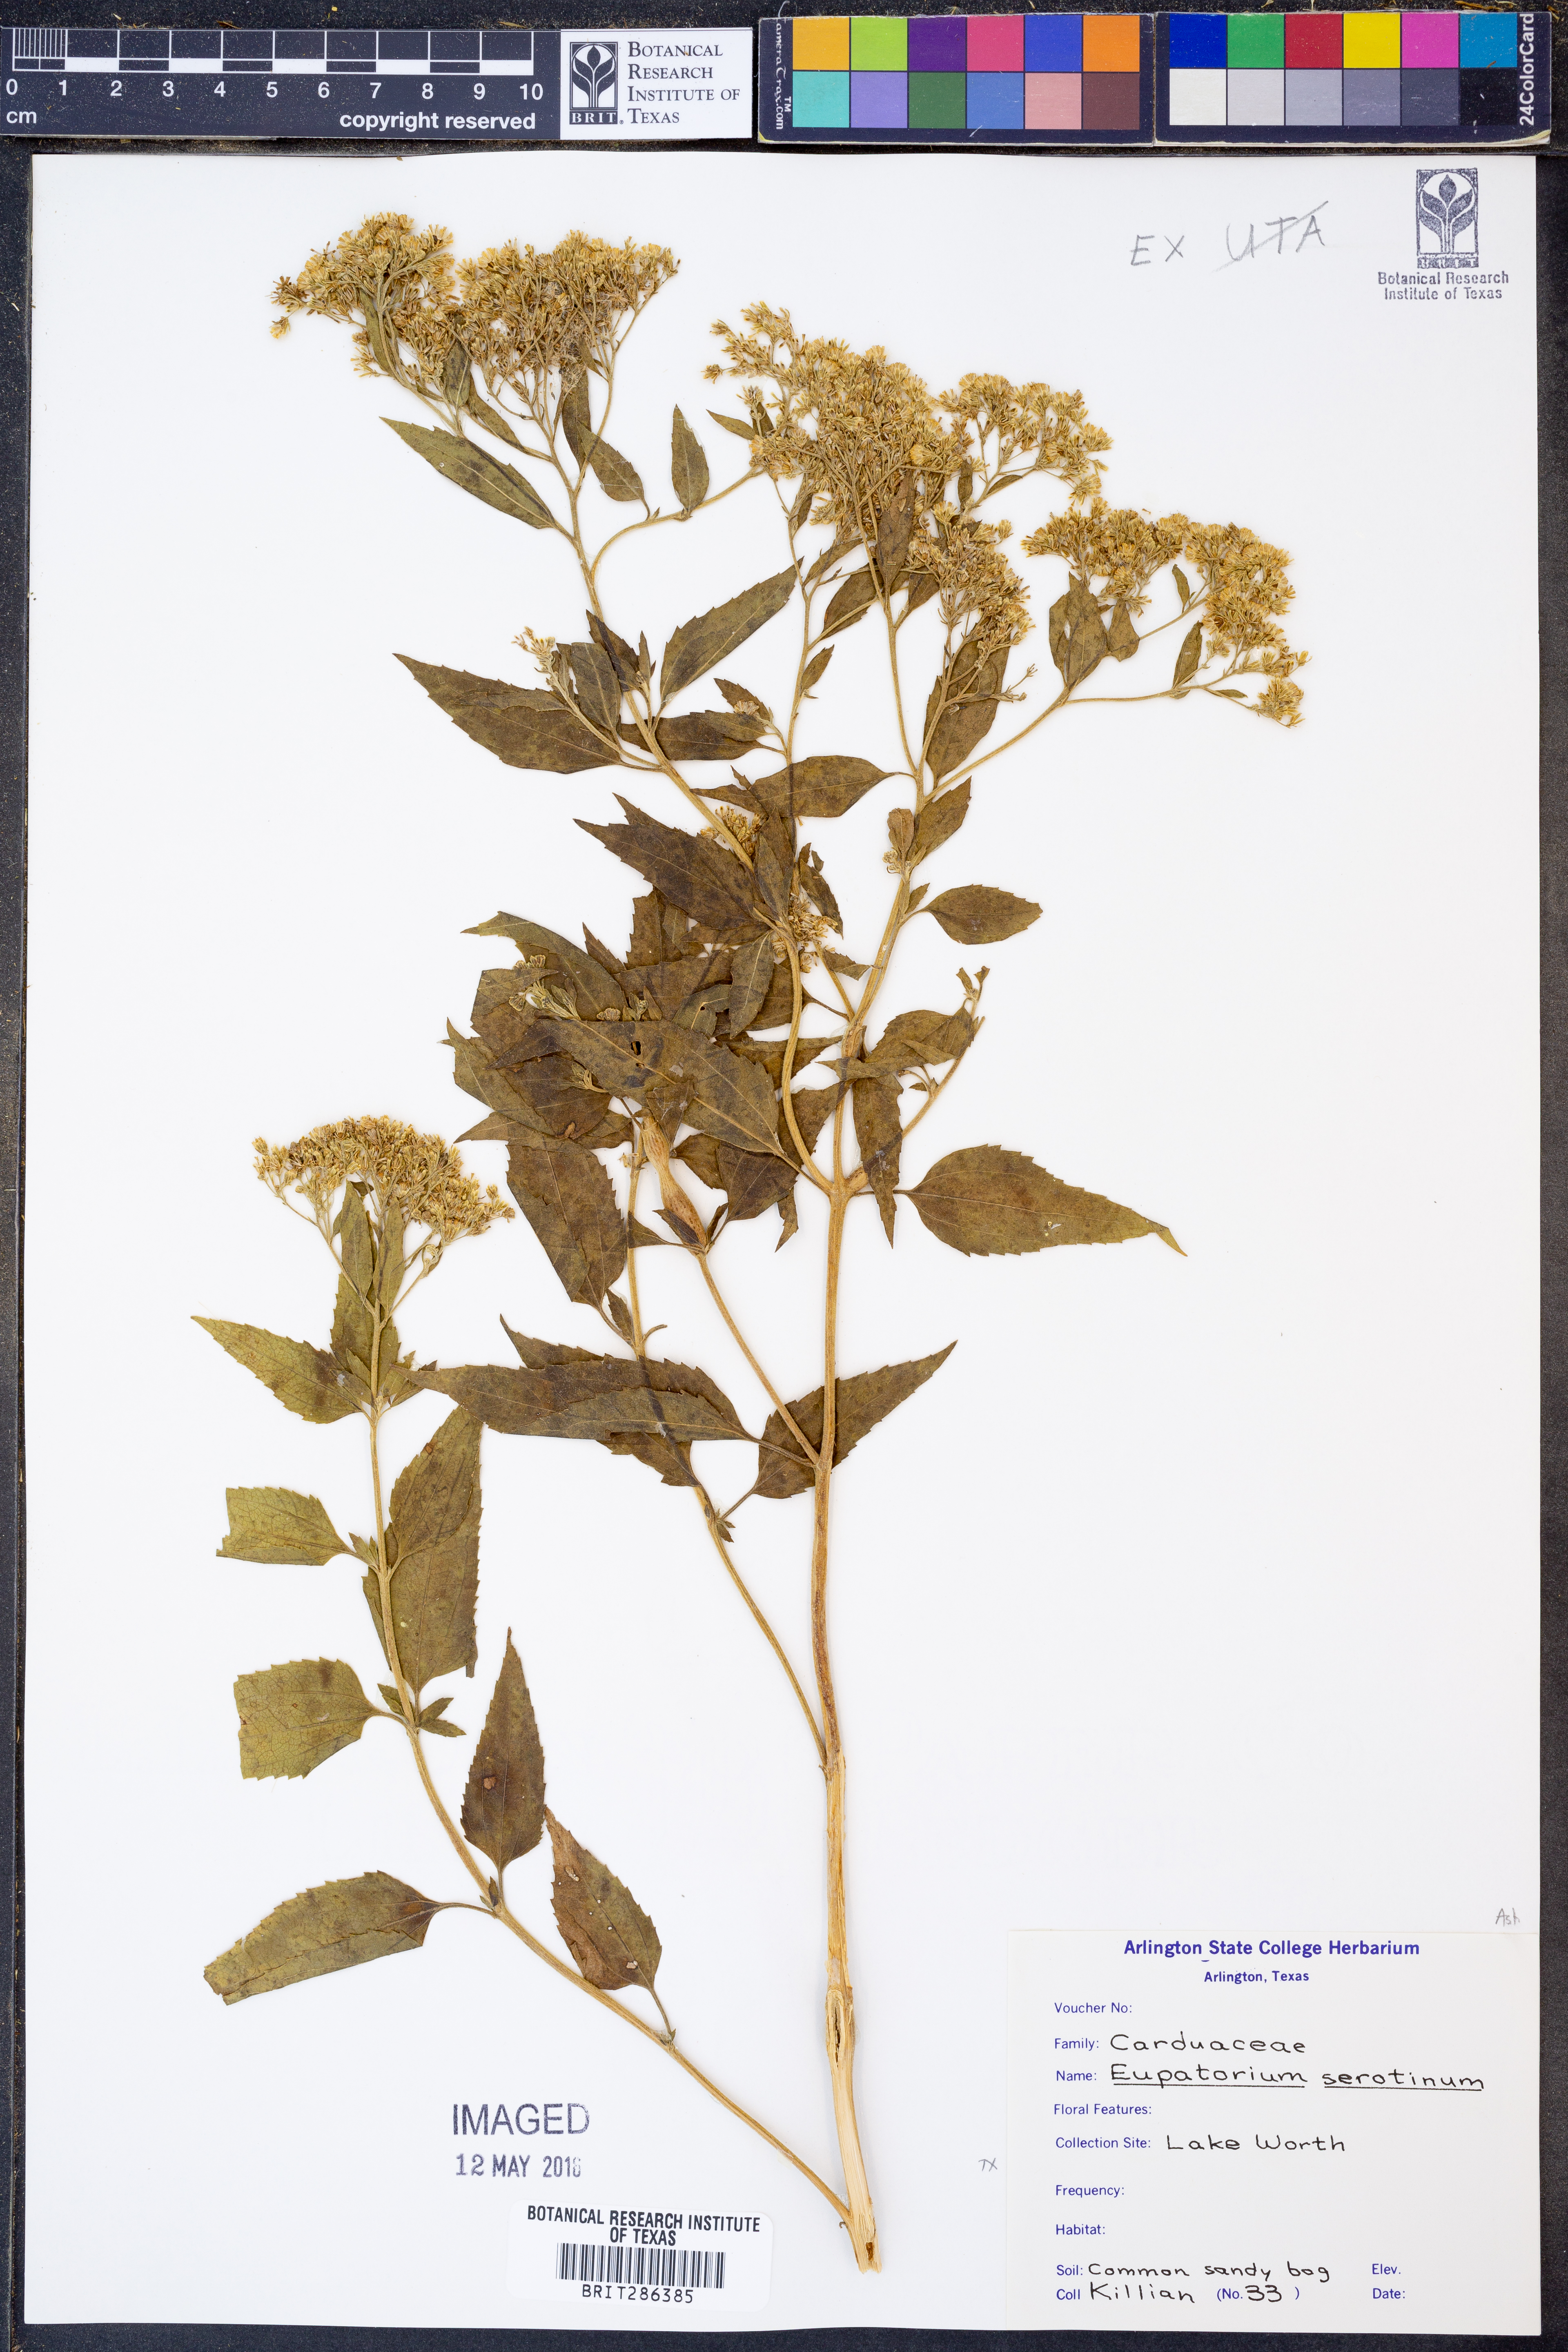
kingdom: Plantae
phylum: Tracheophyta
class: Magnoliopsida
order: Asterales
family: Asteraceae
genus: Eupatorium
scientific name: Eupatorium serotinum
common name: Late boneset
